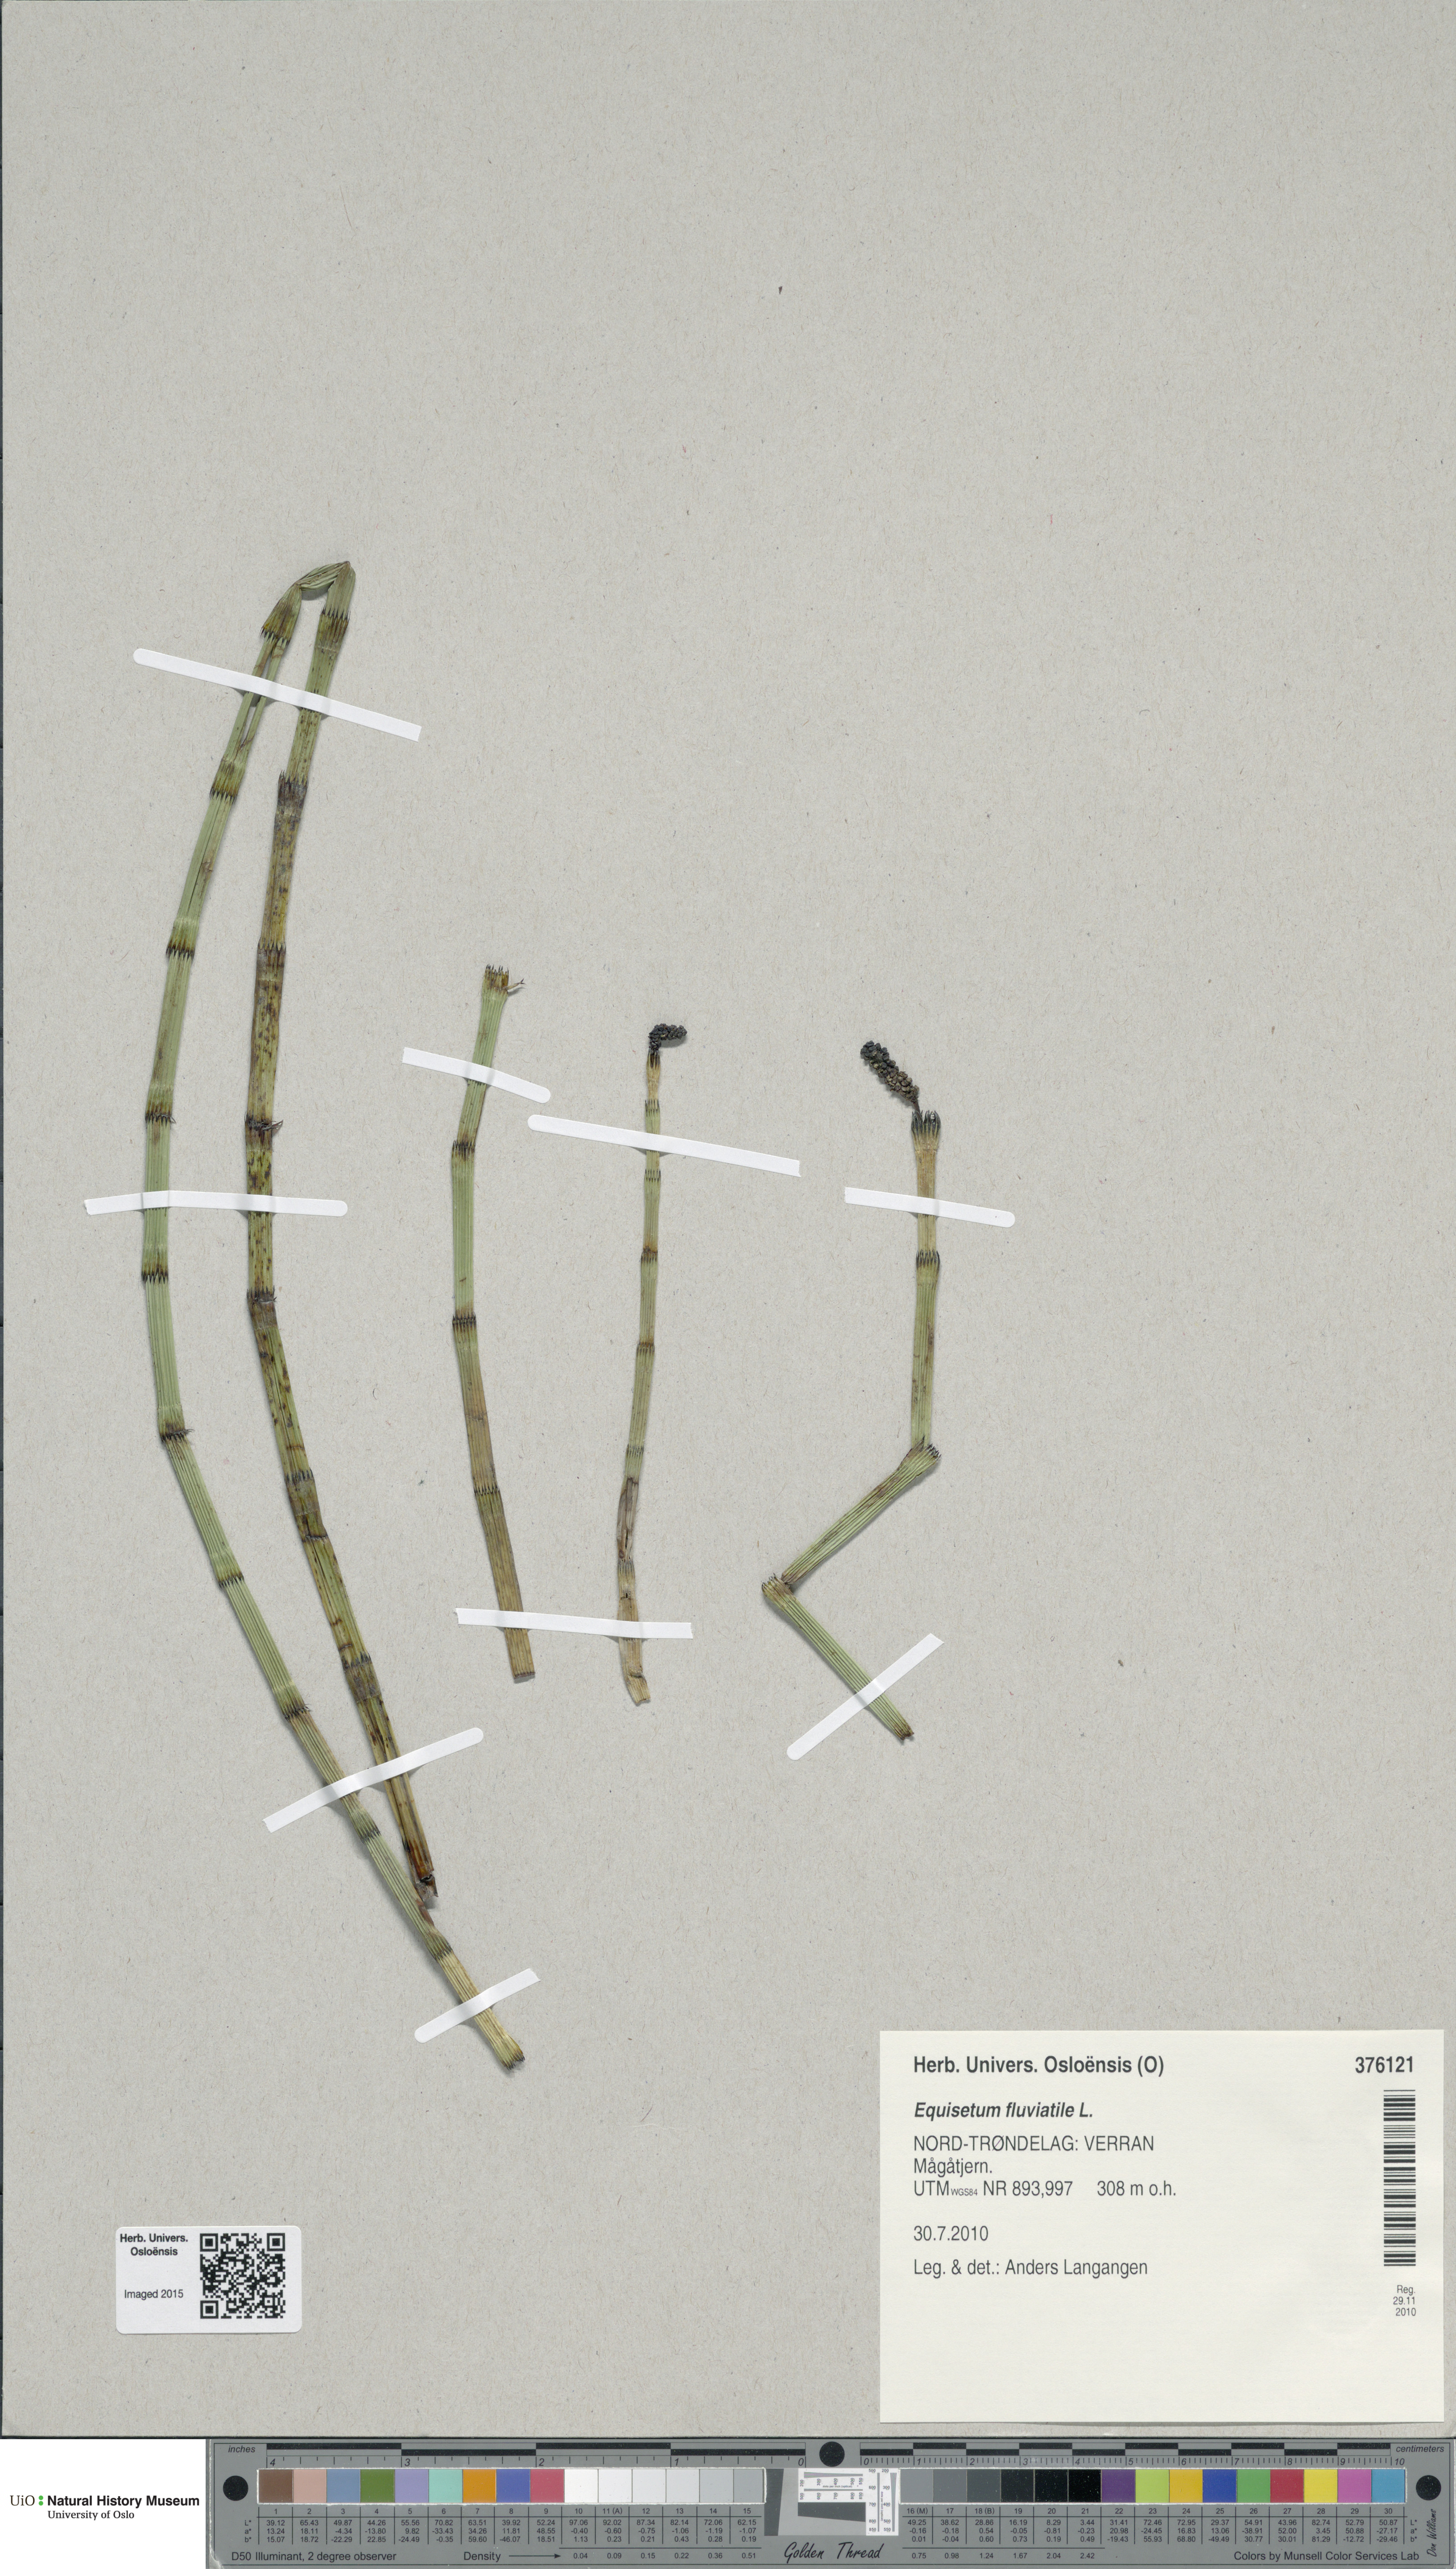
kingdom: Plantae
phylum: Tracheophyta
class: Polypodiopsida
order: Equisetales
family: Equisetaceae
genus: Equisetum
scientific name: Equisetum fluviatile
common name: Water horsetail
